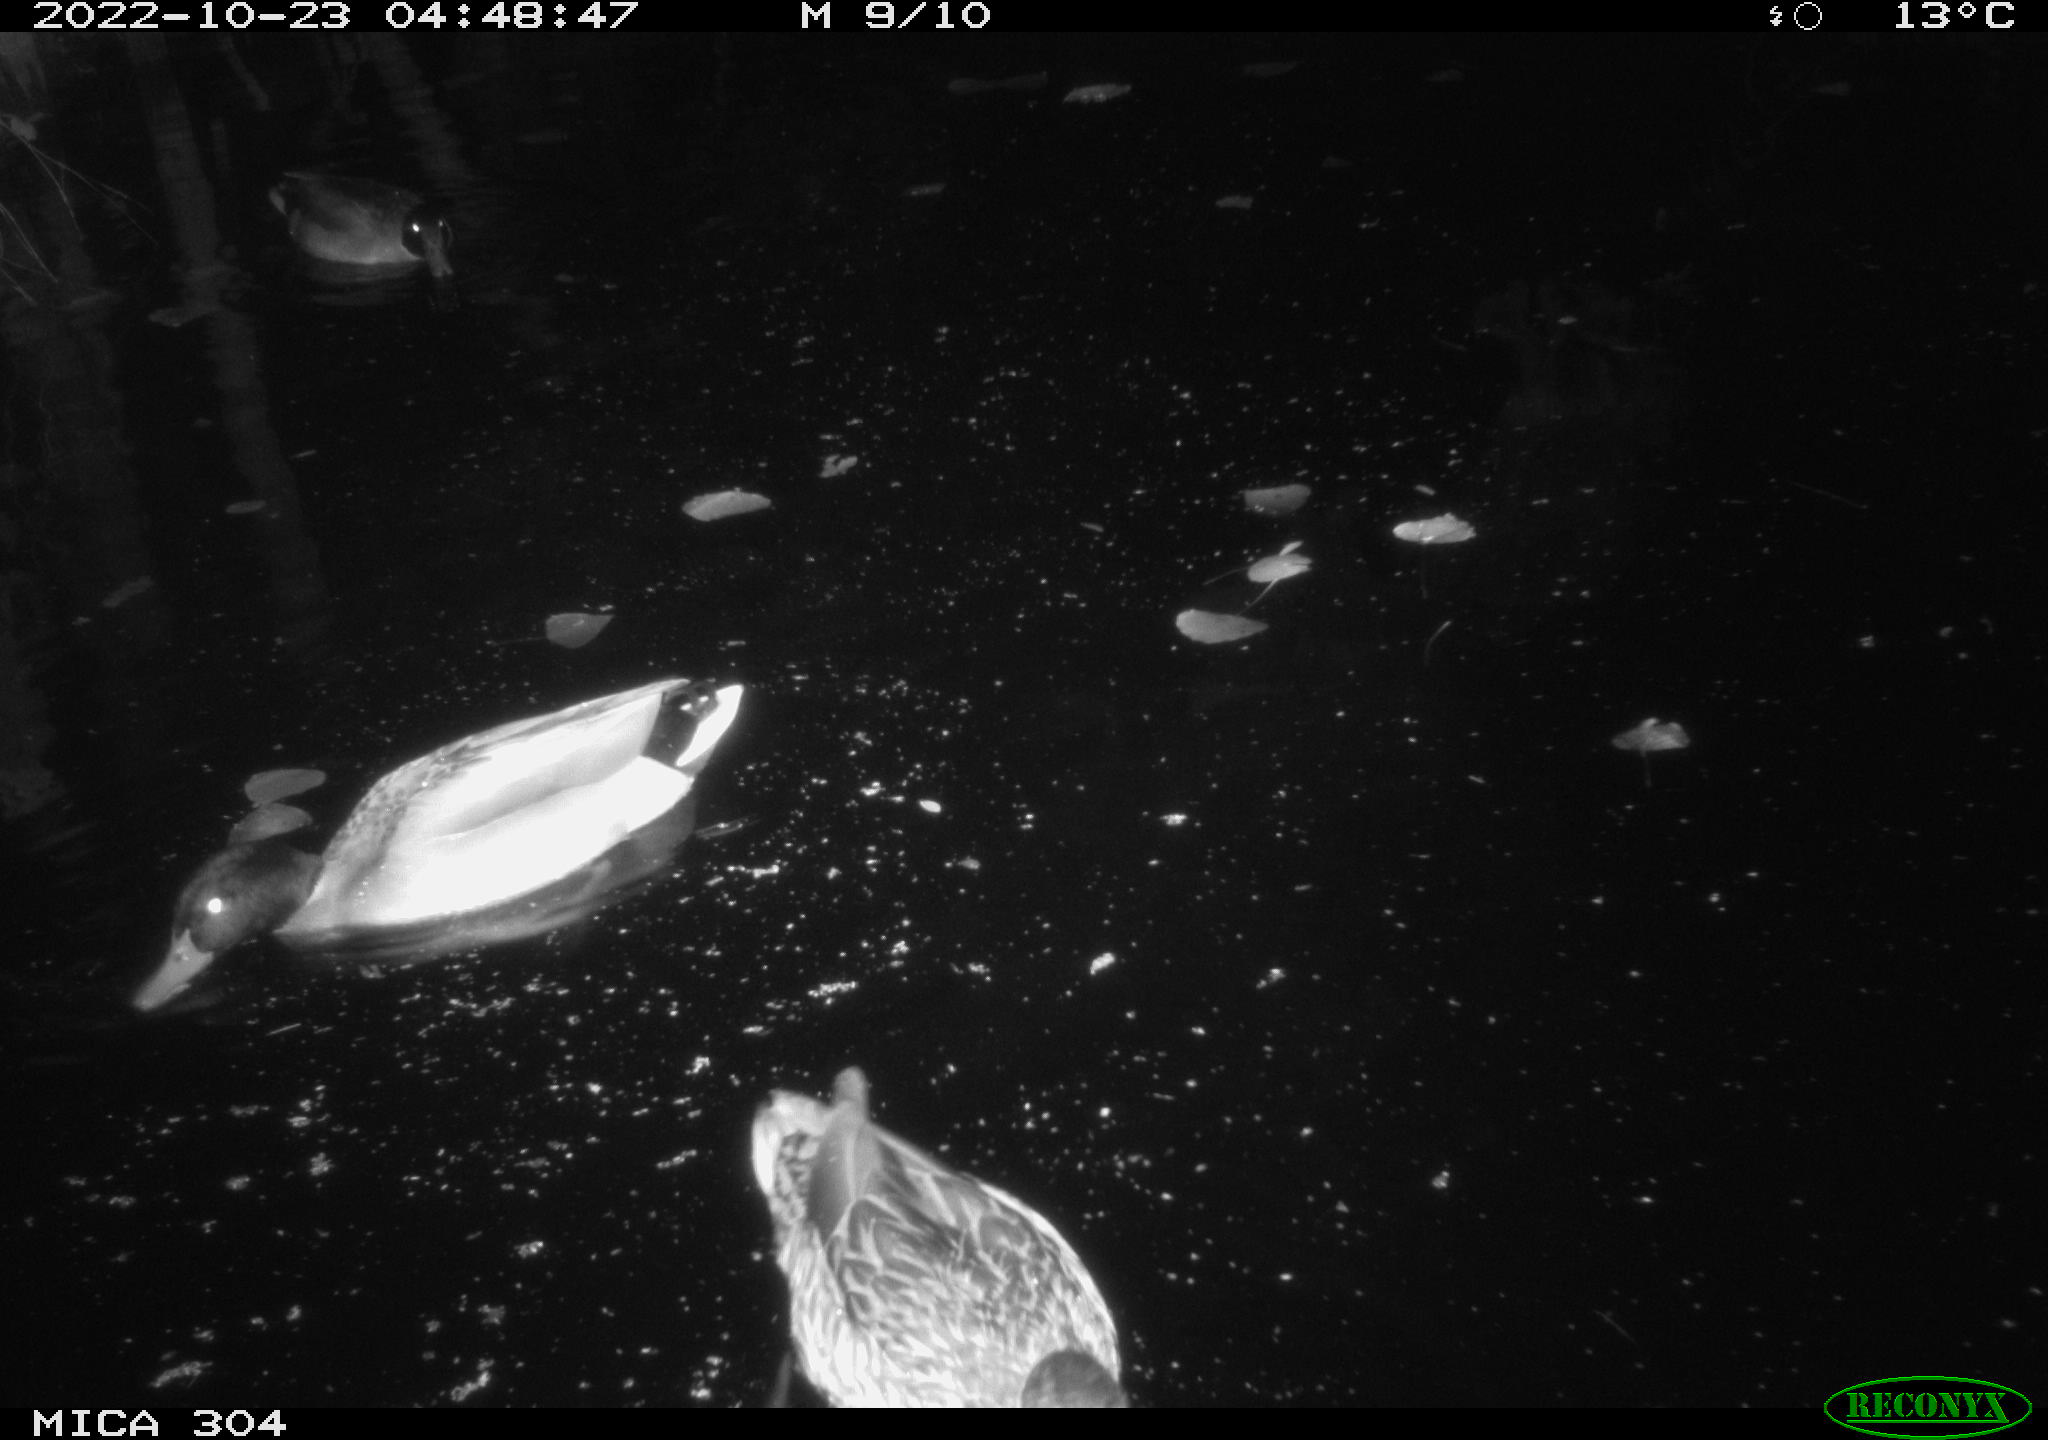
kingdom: Animalia
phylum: Chordata
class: Aves
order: Anseriformes
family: Anatidae
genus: Anas
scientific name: Anas
